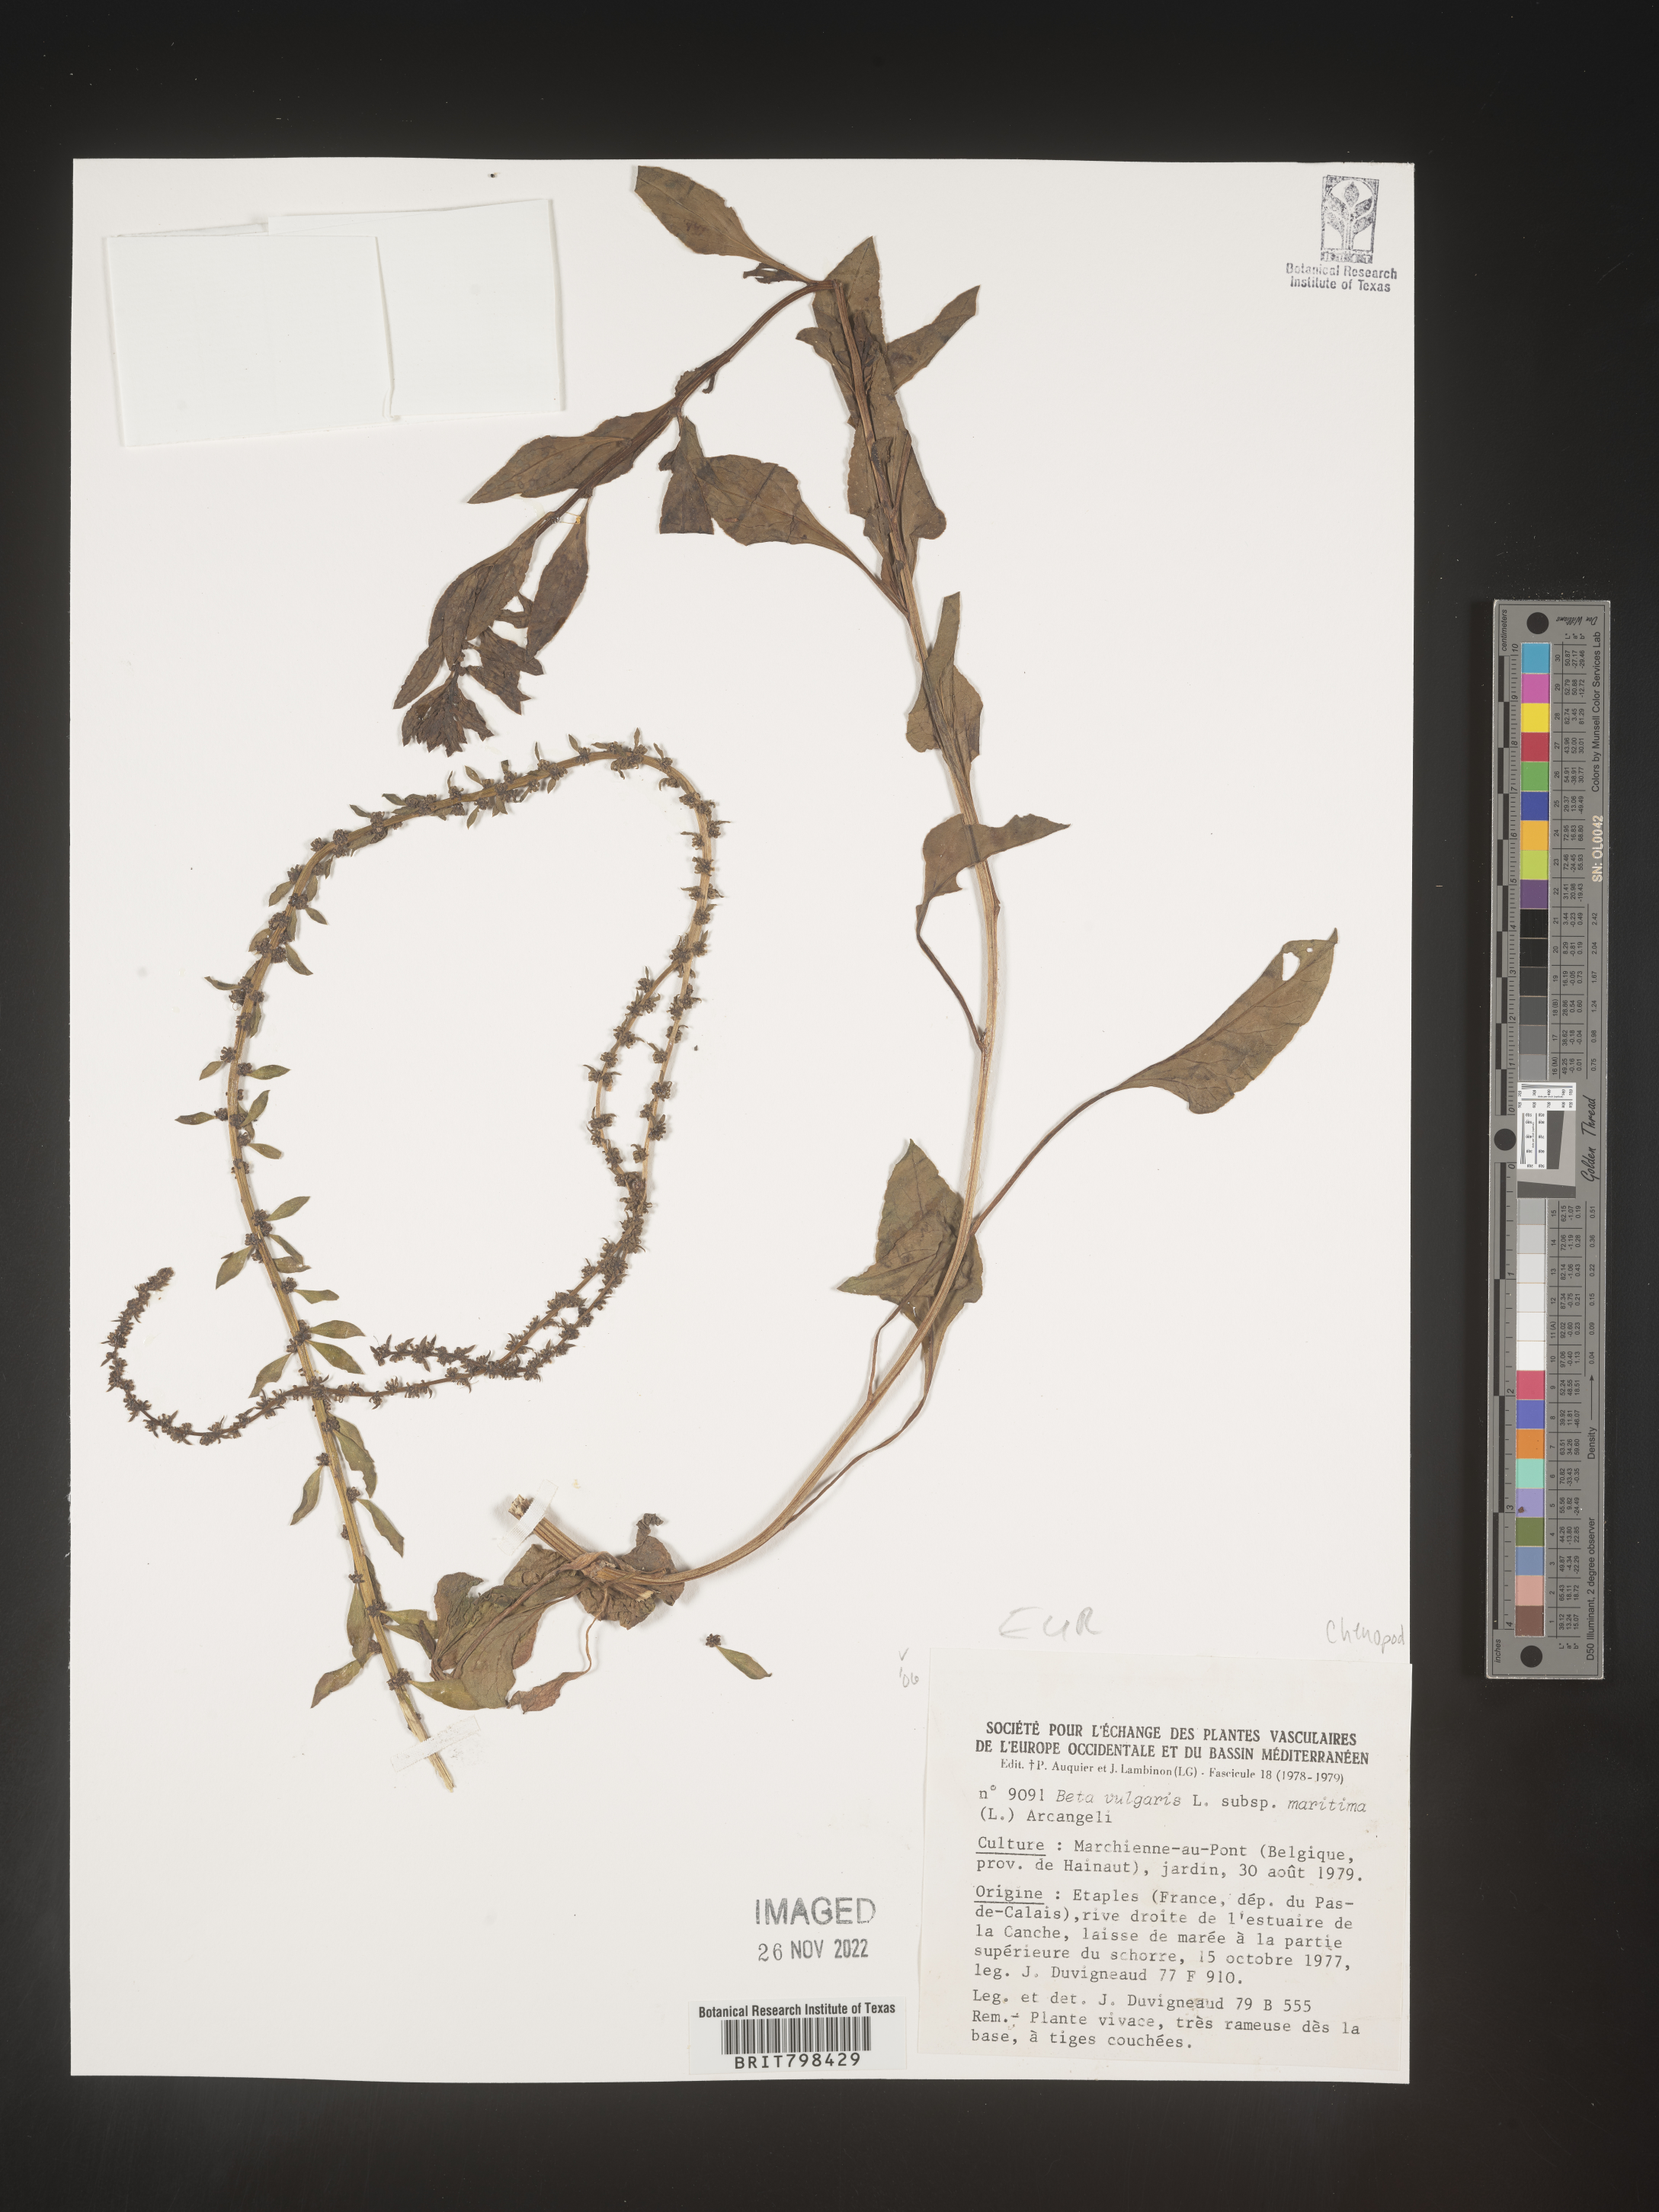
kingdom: Plantae
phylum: Tracheophyta
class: Magnoliopsida
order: Caryophyllales
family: Amaranthaceae
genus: Beta
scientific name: Beta
